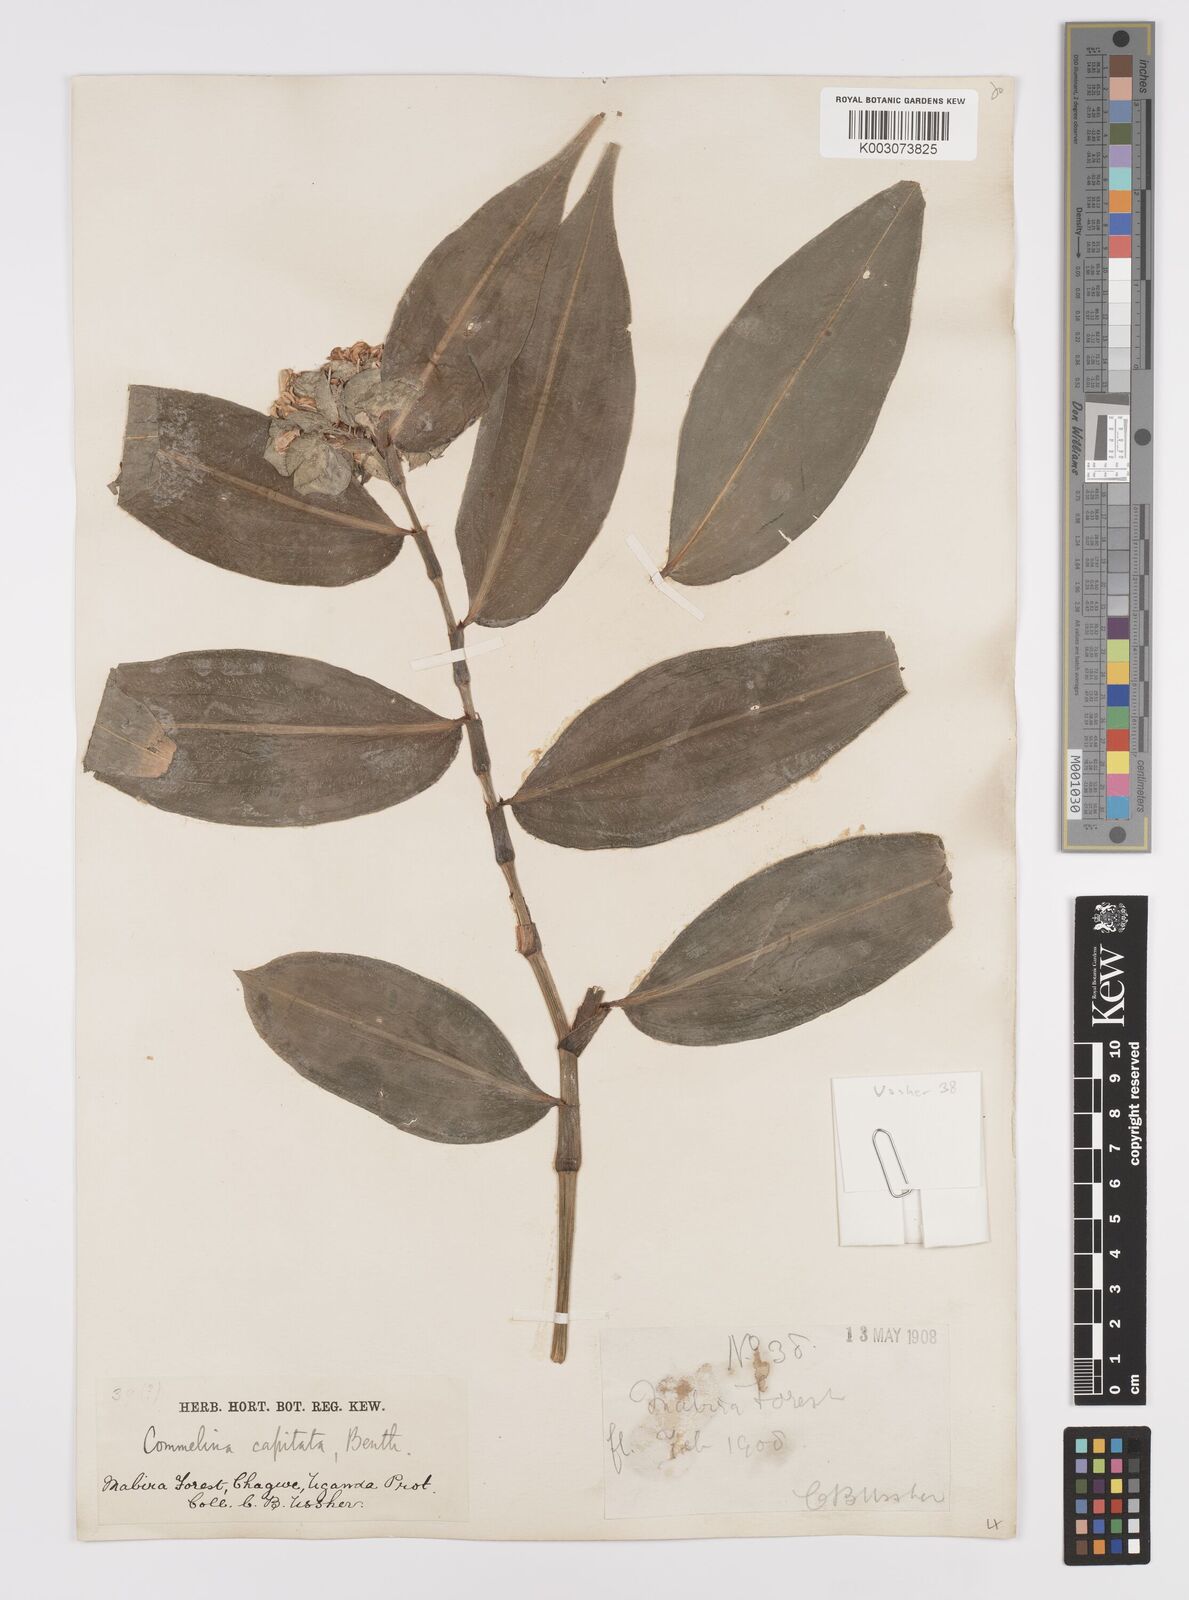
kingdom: Plantae
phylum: Tracheophyta
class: Liliopsida
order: Commelinales
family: Commelinaceae
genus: Commelina
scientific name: Commelina capitata
